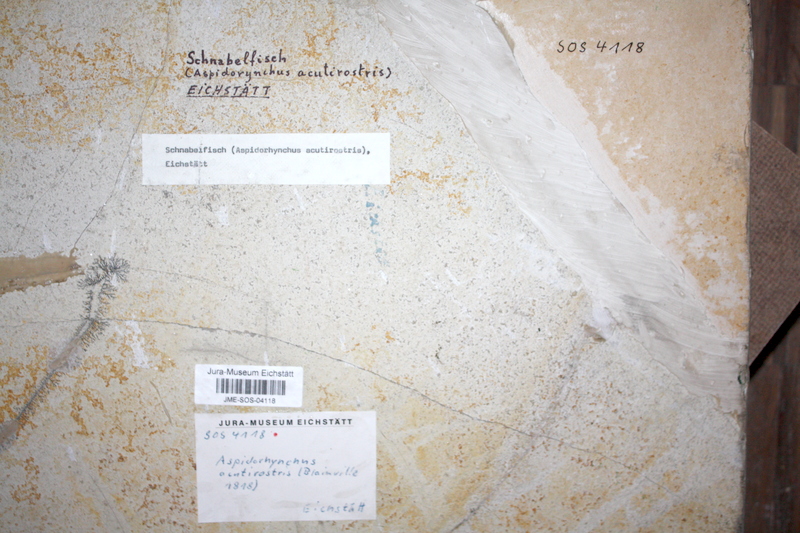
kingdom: Animalia
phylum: Chordata
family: Aspidorhynchidae
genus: Aspidorhynchus
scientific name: Aspidorhynchus acutirostris
